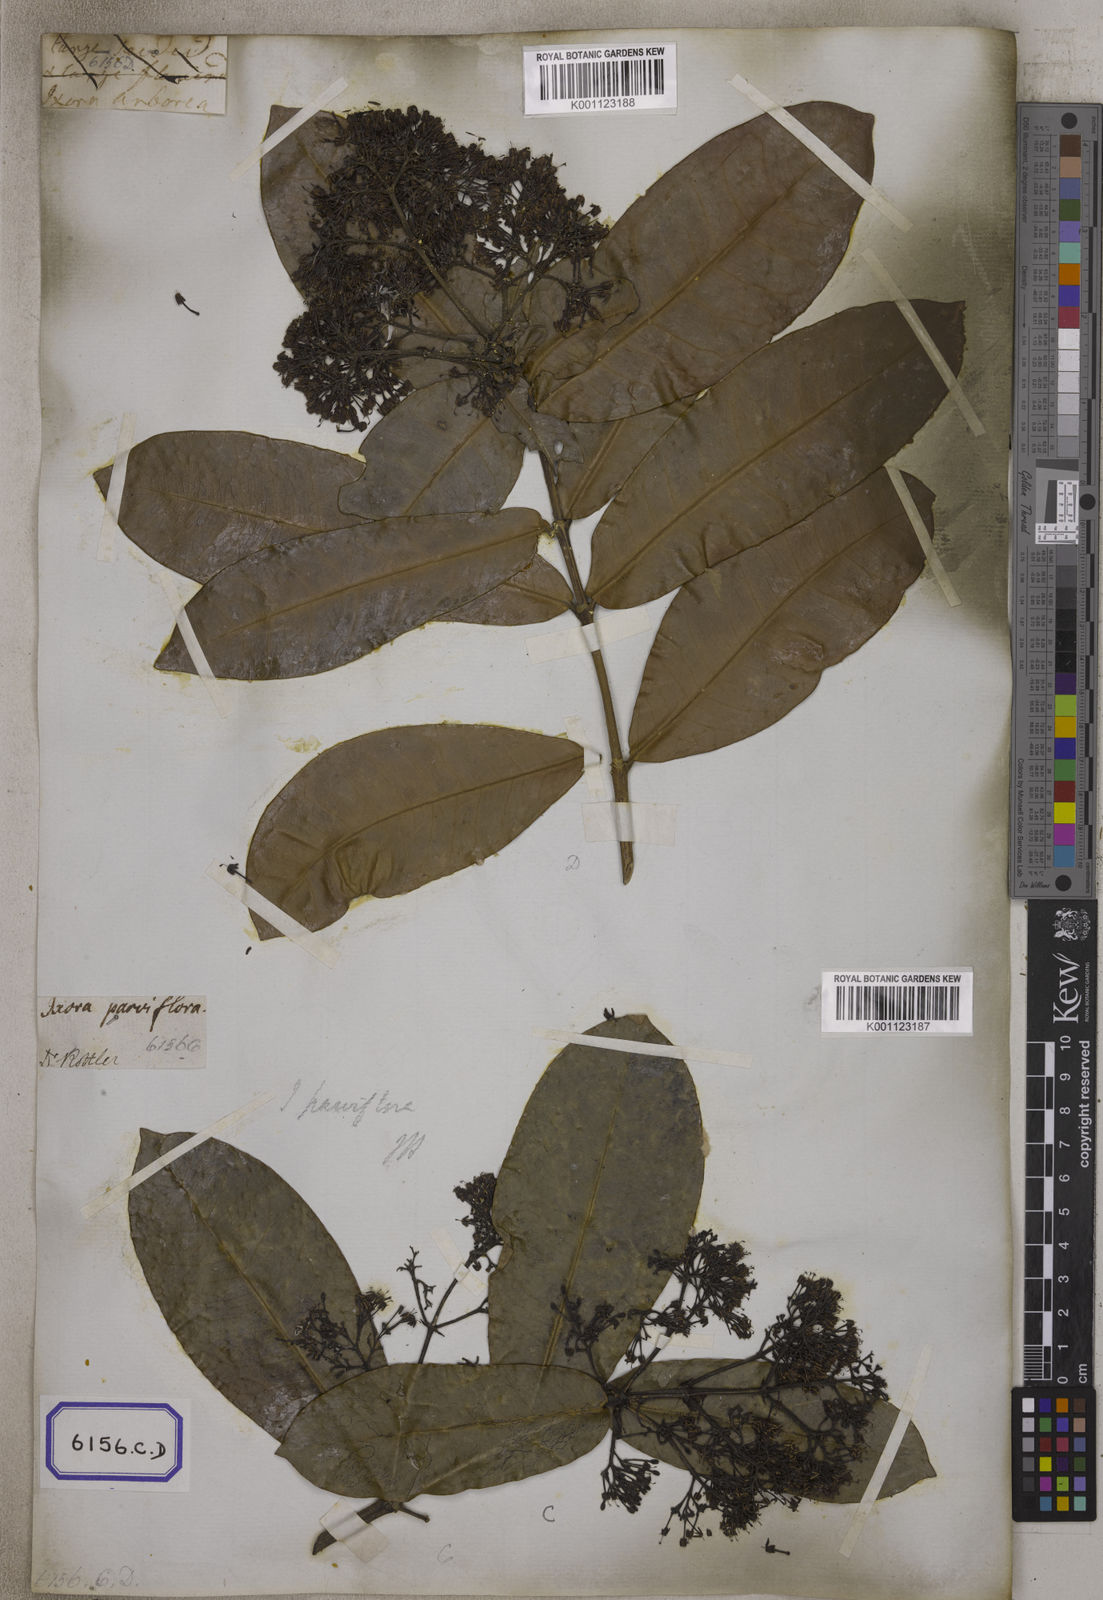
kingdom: Plantae
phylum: Tracheophyta
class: Magnoliopsida
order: Gentianales
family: Rubiaceae
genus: Ixora
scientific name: Ixora pavetta
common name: Torch tree
